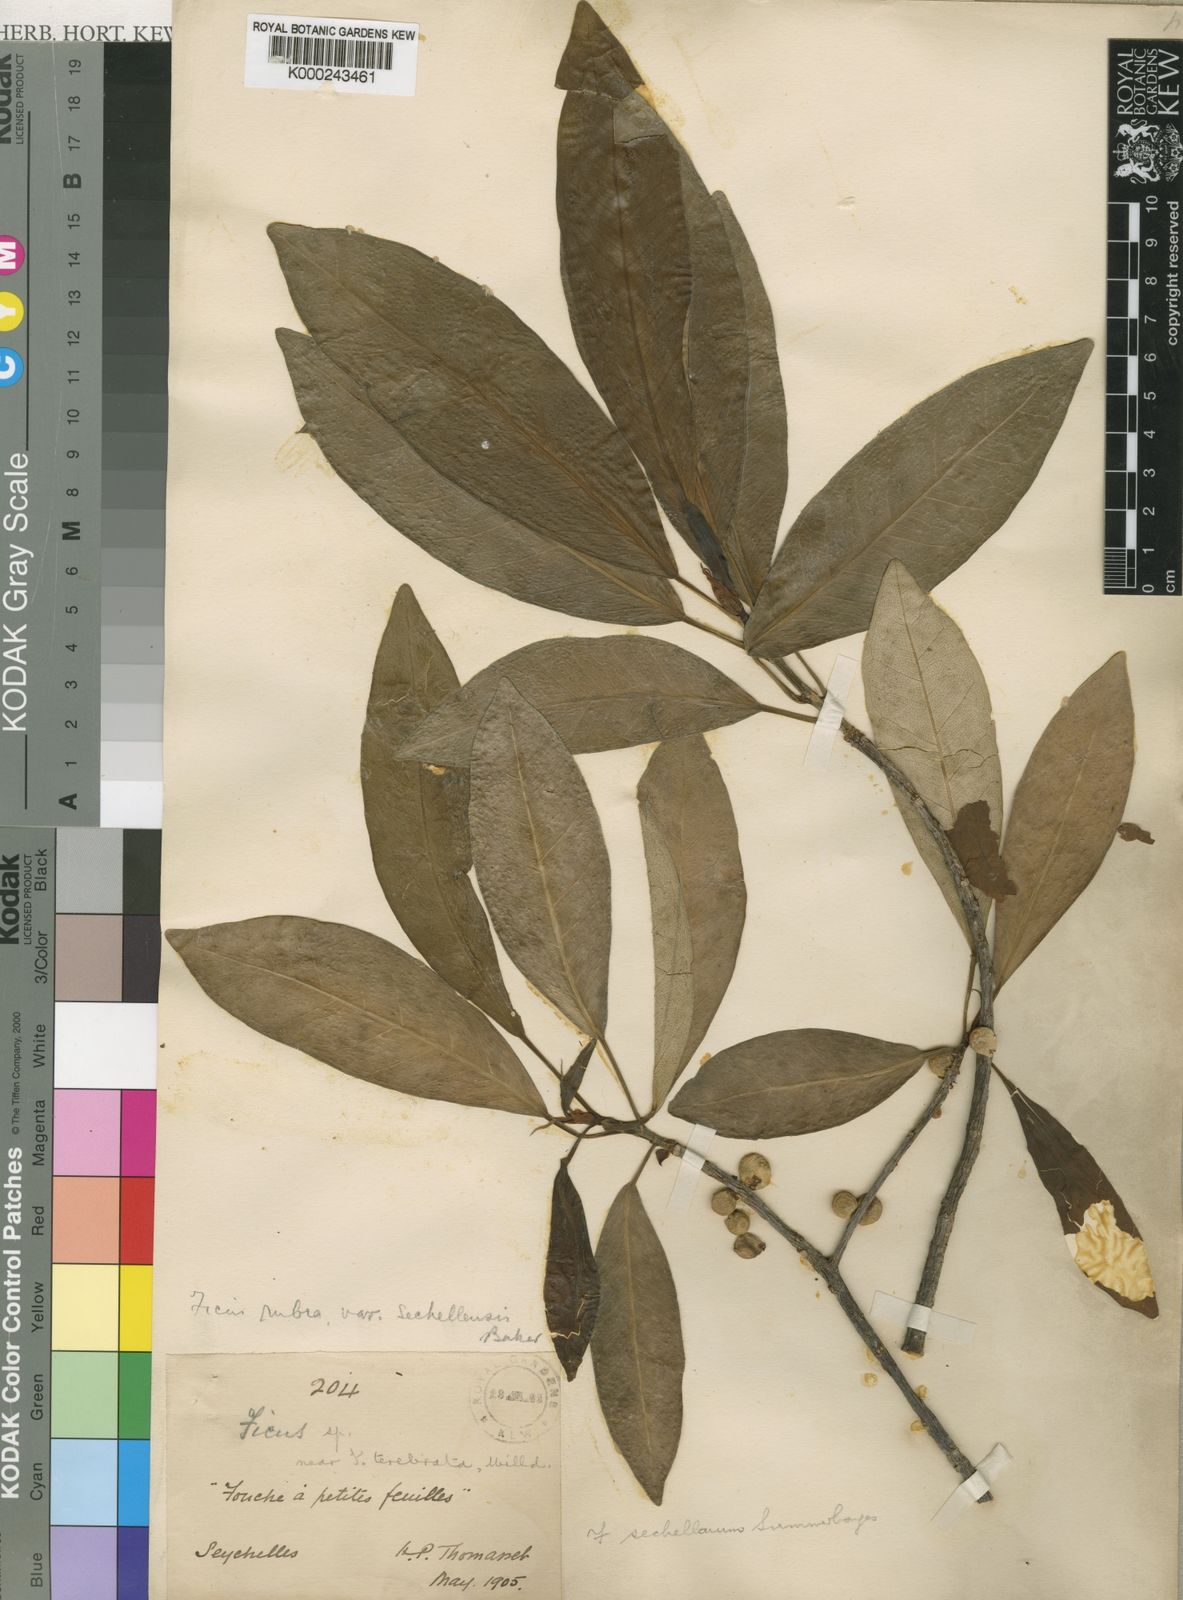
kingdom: Plantae
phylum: Tracheophyta
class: Magnoliopsida
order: Rosales
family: Moraceae
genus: Ficus
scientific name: Ficus reflexa
